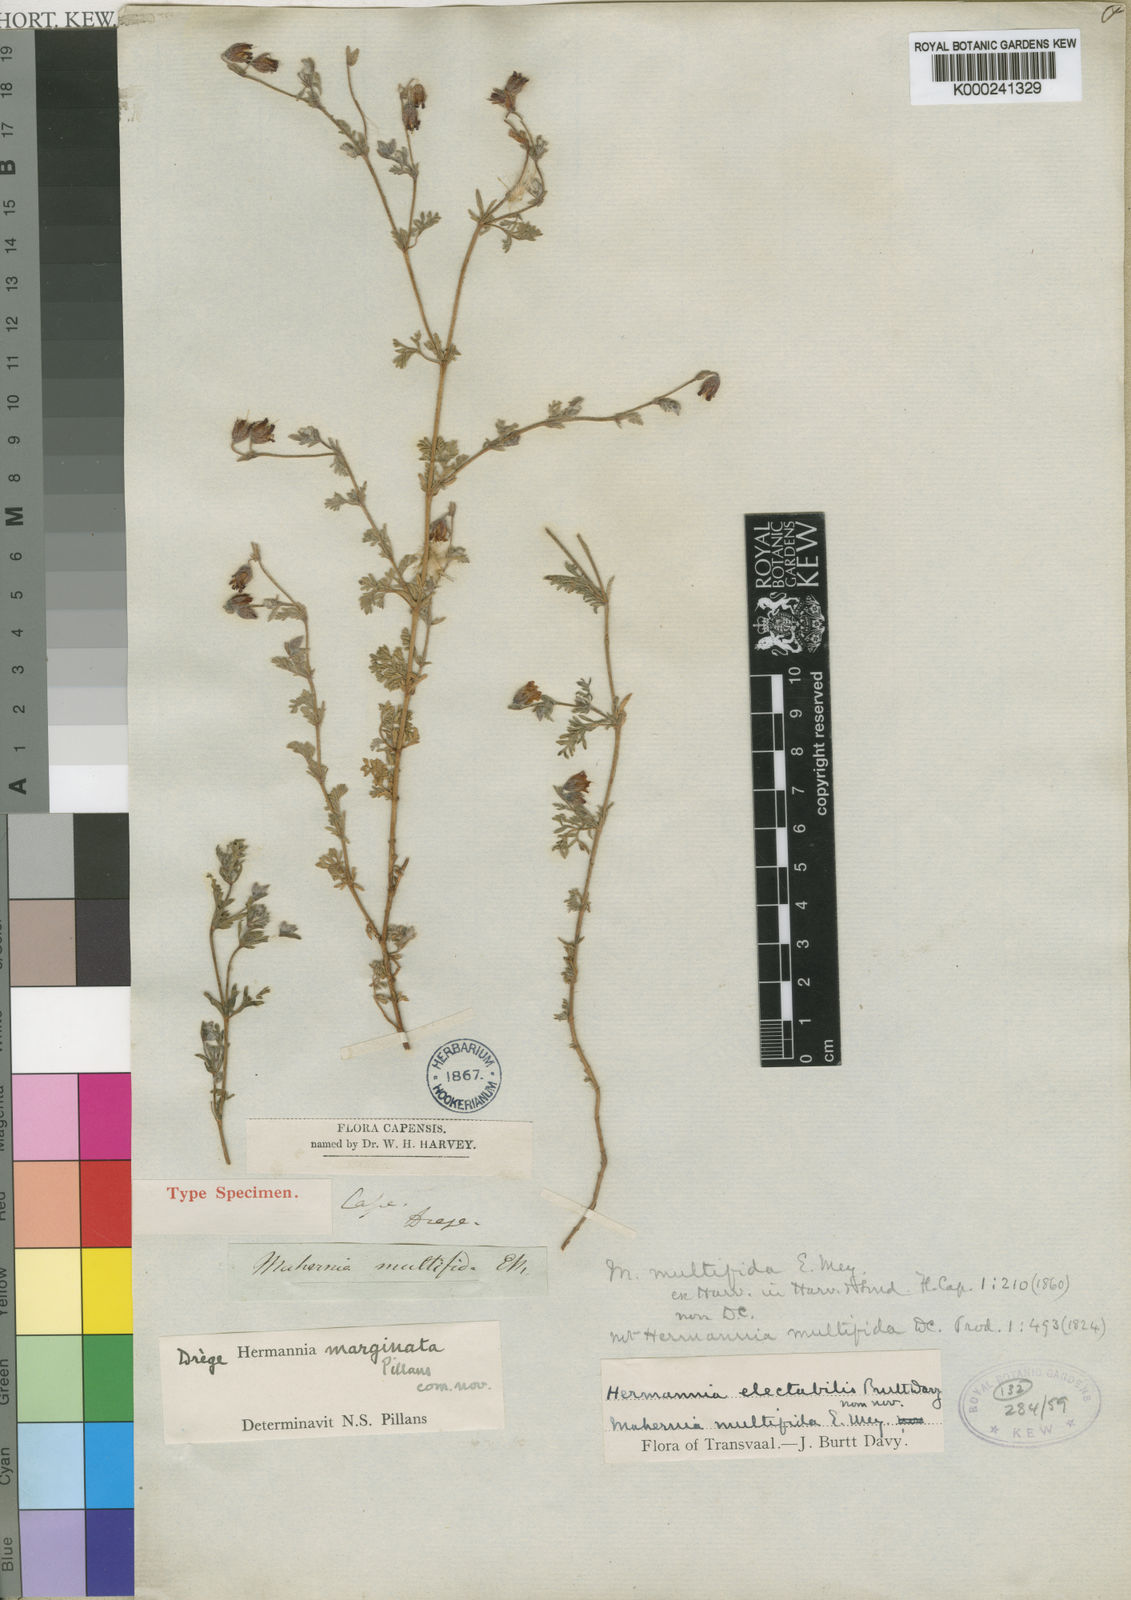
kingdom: Plantae
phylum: Tracheophyta
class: Magnoliopsida
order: Malvales
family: Malvaceae
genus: Hermannia
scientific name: Hermannia
